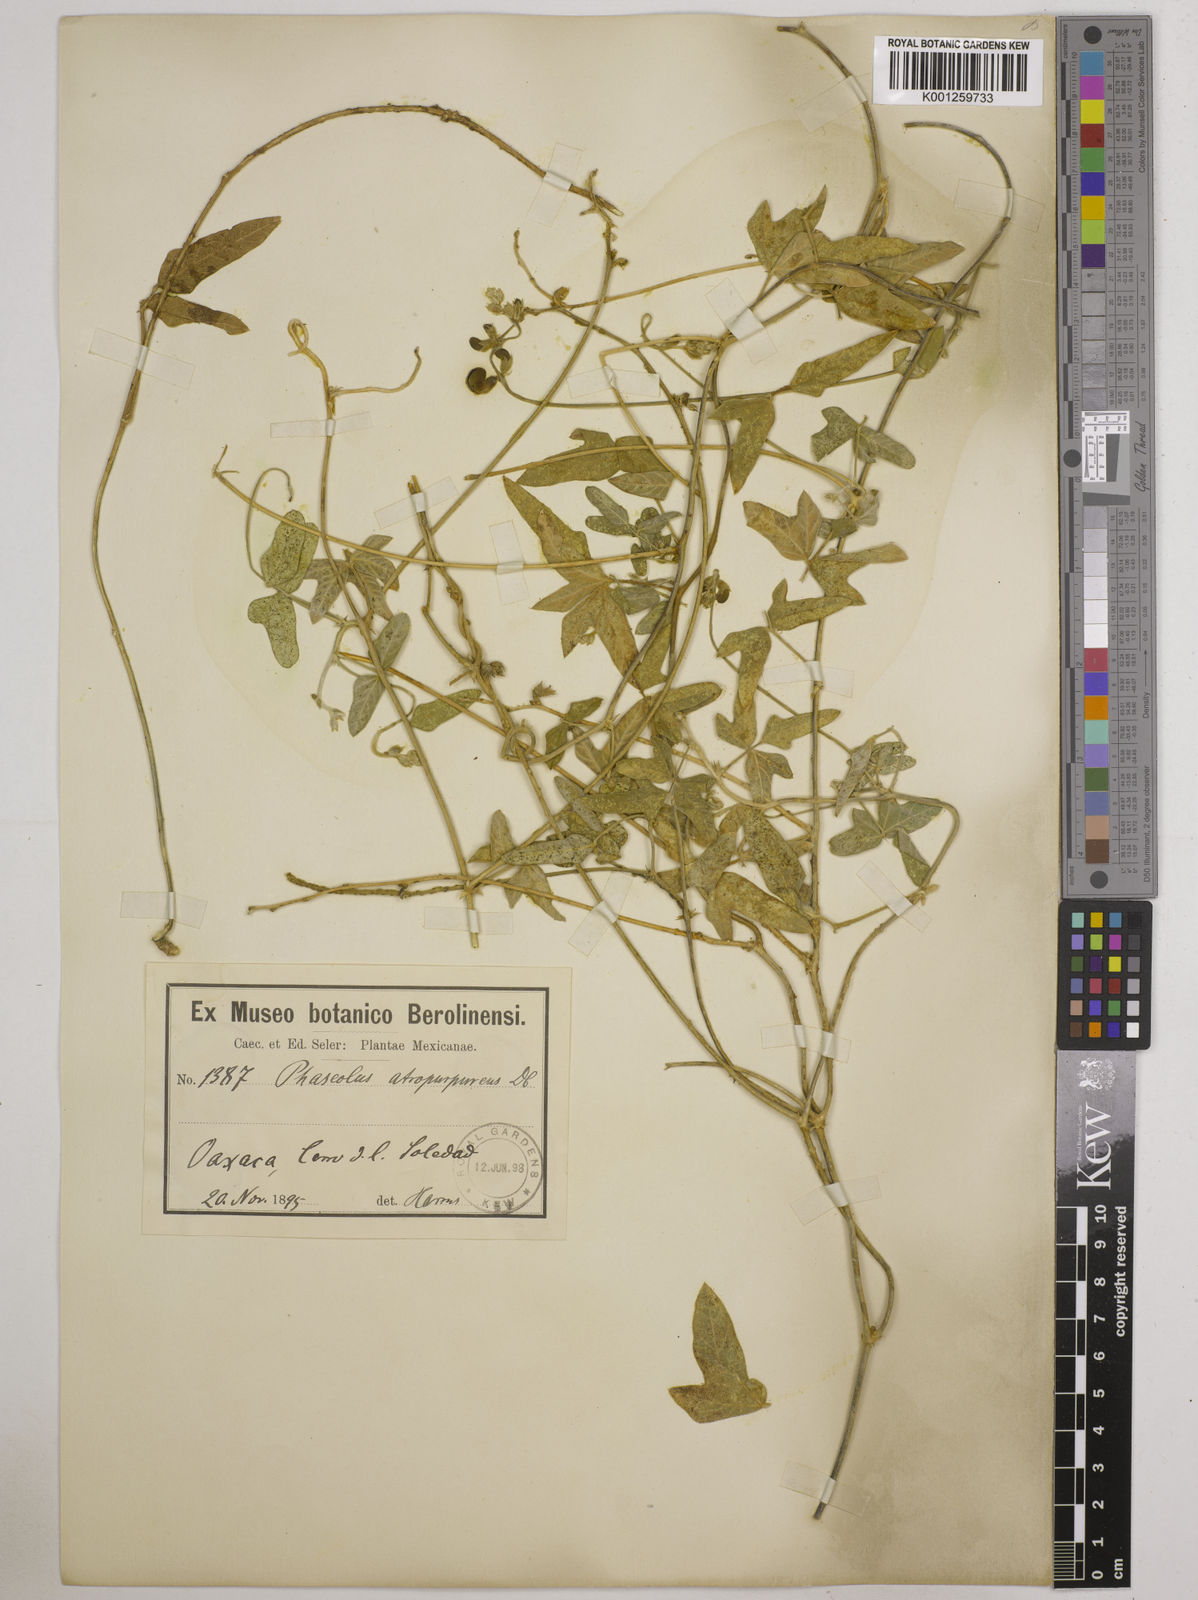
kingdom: Plantae
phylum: Tracheophyta
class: Magnoliopsida
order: Fabales
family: Fabaceae
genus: Macroptilium
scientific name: Macroptilium atropurpureum
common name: Purple bushbean
